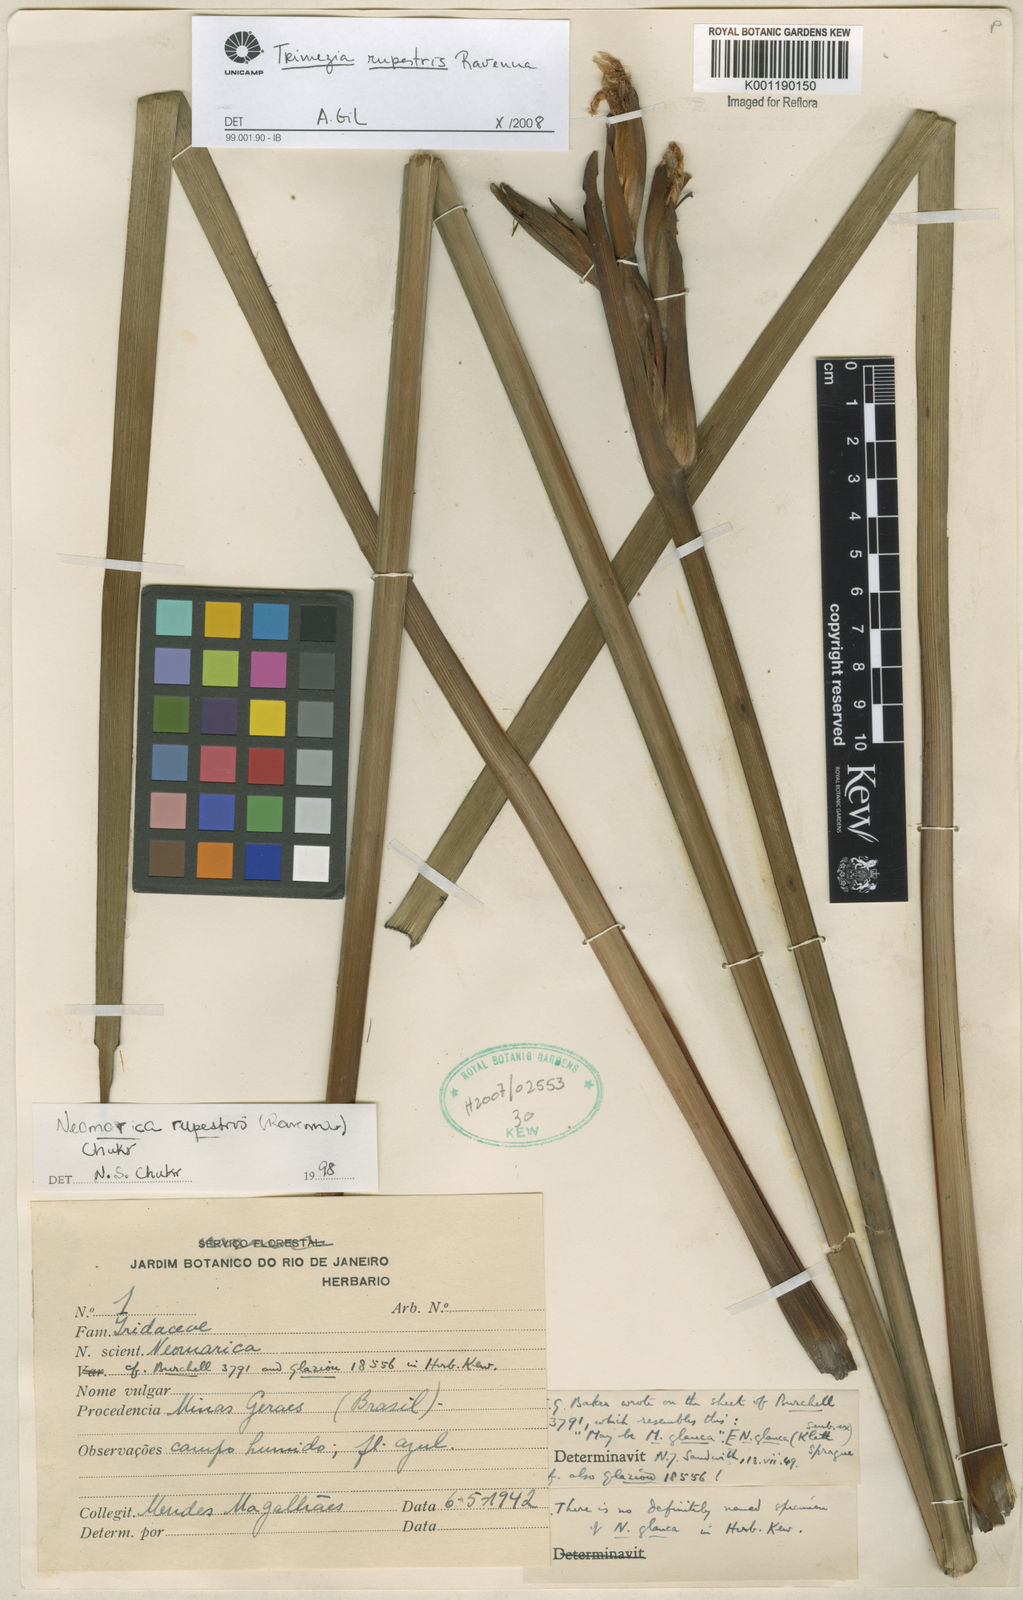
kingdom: Plantae
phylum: Tracheophyta
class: Liliopsida
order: Asparagales
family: Iridaceae
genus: Trimezia
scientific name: Trimezia
